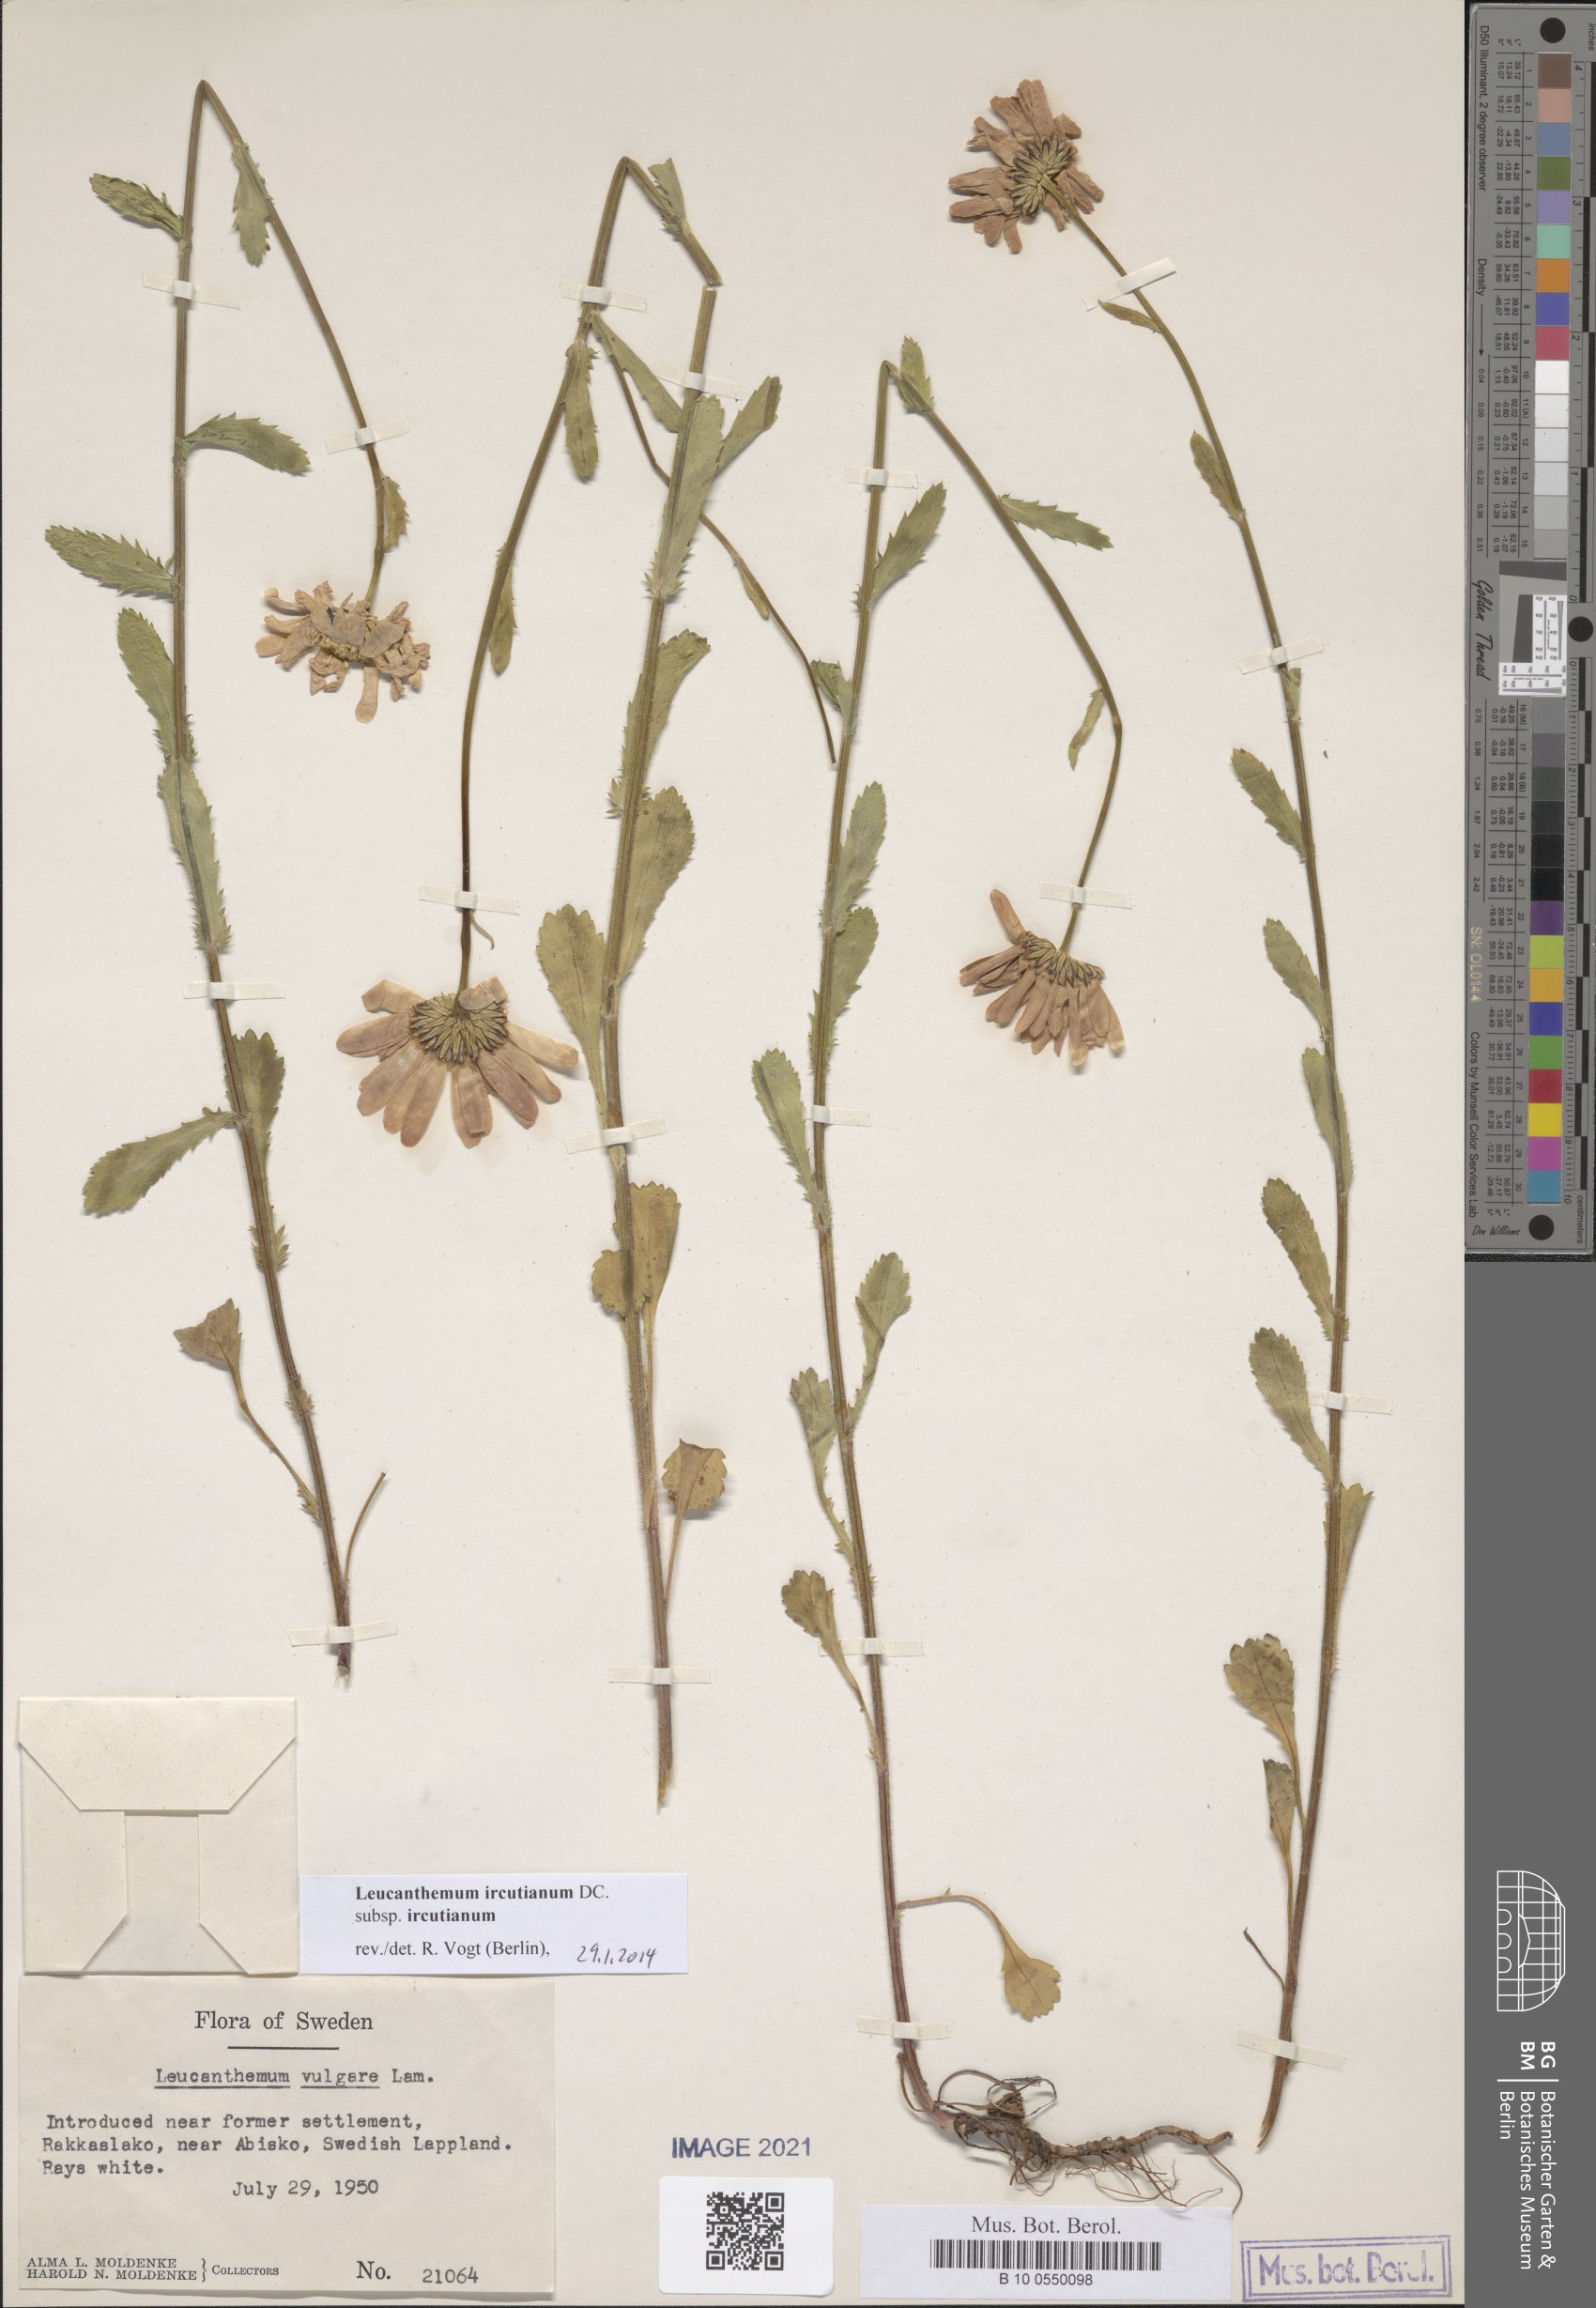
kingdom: Plantae
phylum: Tracheophyta
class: Magnoliopsida
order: Asterales
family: Asteraceae
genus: Leucanthemum
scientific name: Leucanthemum ircutianum
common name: Daisy
